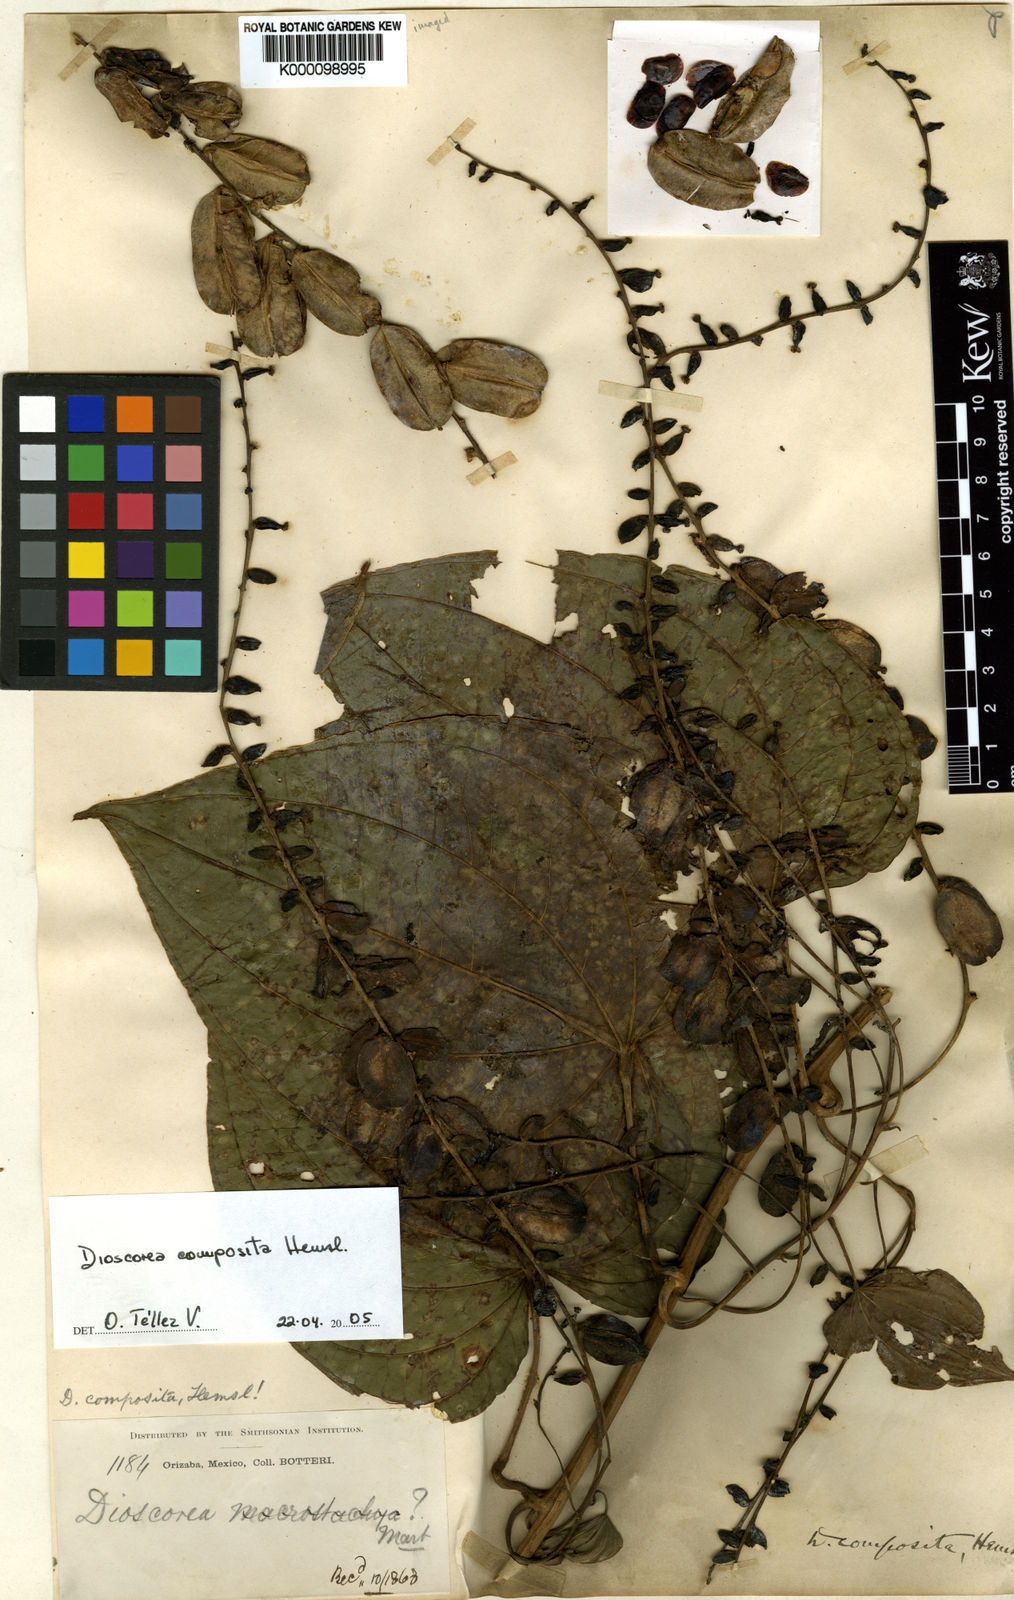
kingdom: Plantae
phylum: Tracheophyta
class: Liliopsida
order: Dioscoreales
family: Dioscoreaceae
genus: Dioscorea
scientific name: Dioscorea composita
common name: Barbasco
